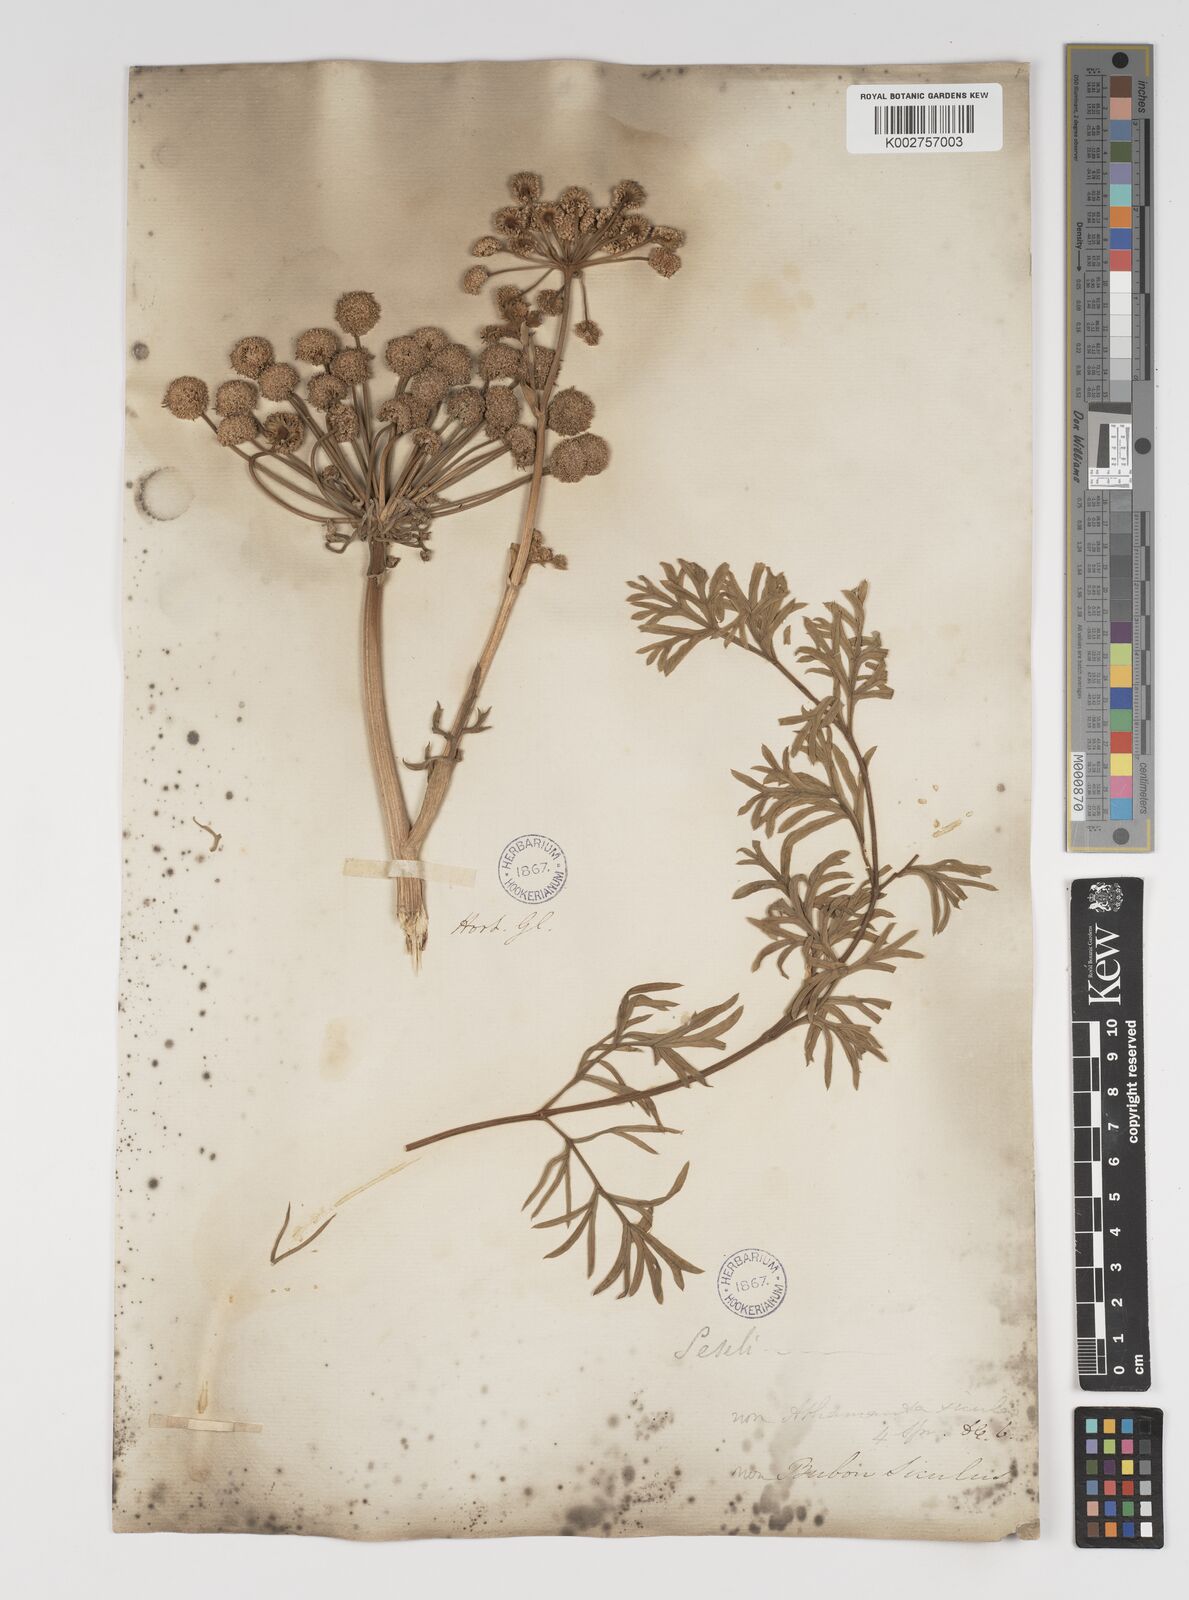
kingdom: Plantae
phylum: Tracheophyta
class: Magnoliopsida
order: Apiales
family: Apiaceae
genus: Seseli
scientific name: Seseli gummiferum
